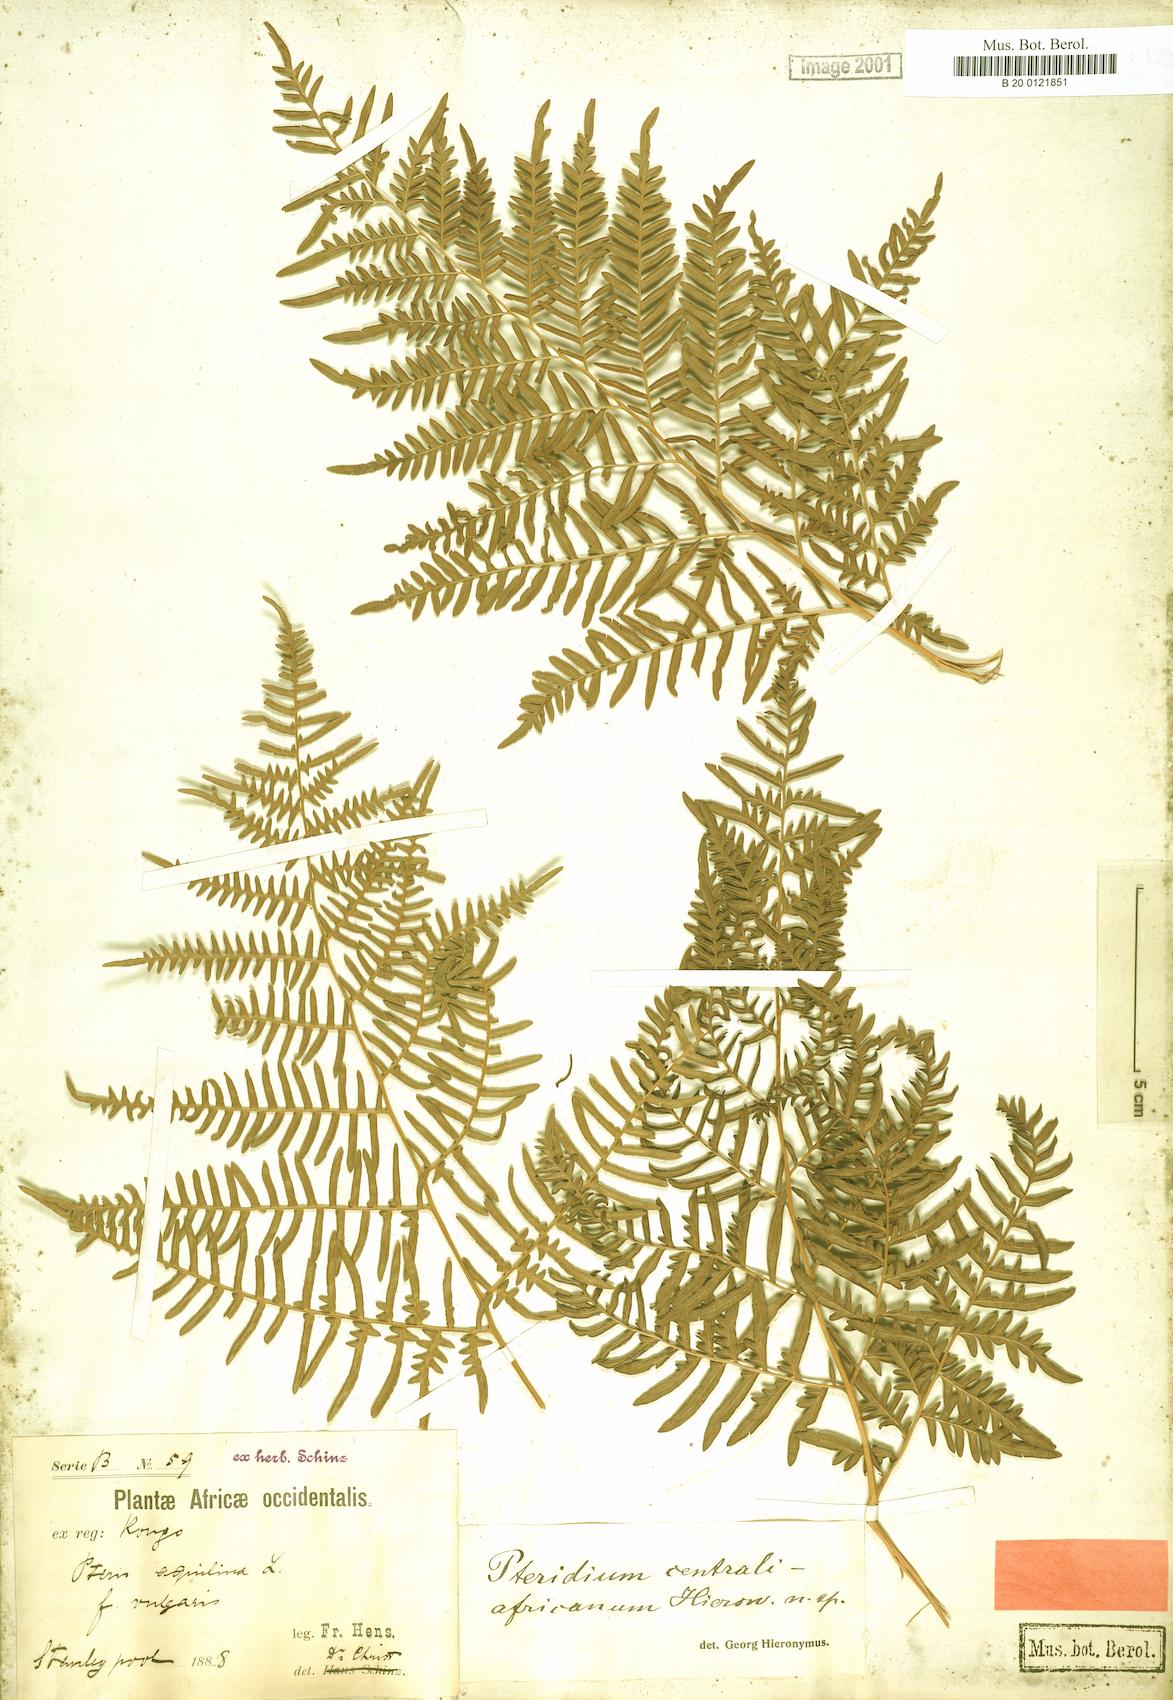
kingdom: Plantae
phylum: Tracheophyta
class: Polypodiopsida
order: Polypodiales
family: Dennstaedtiaceae
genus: Pteridium
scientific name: Pteridium aquilinum
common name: Bracken
